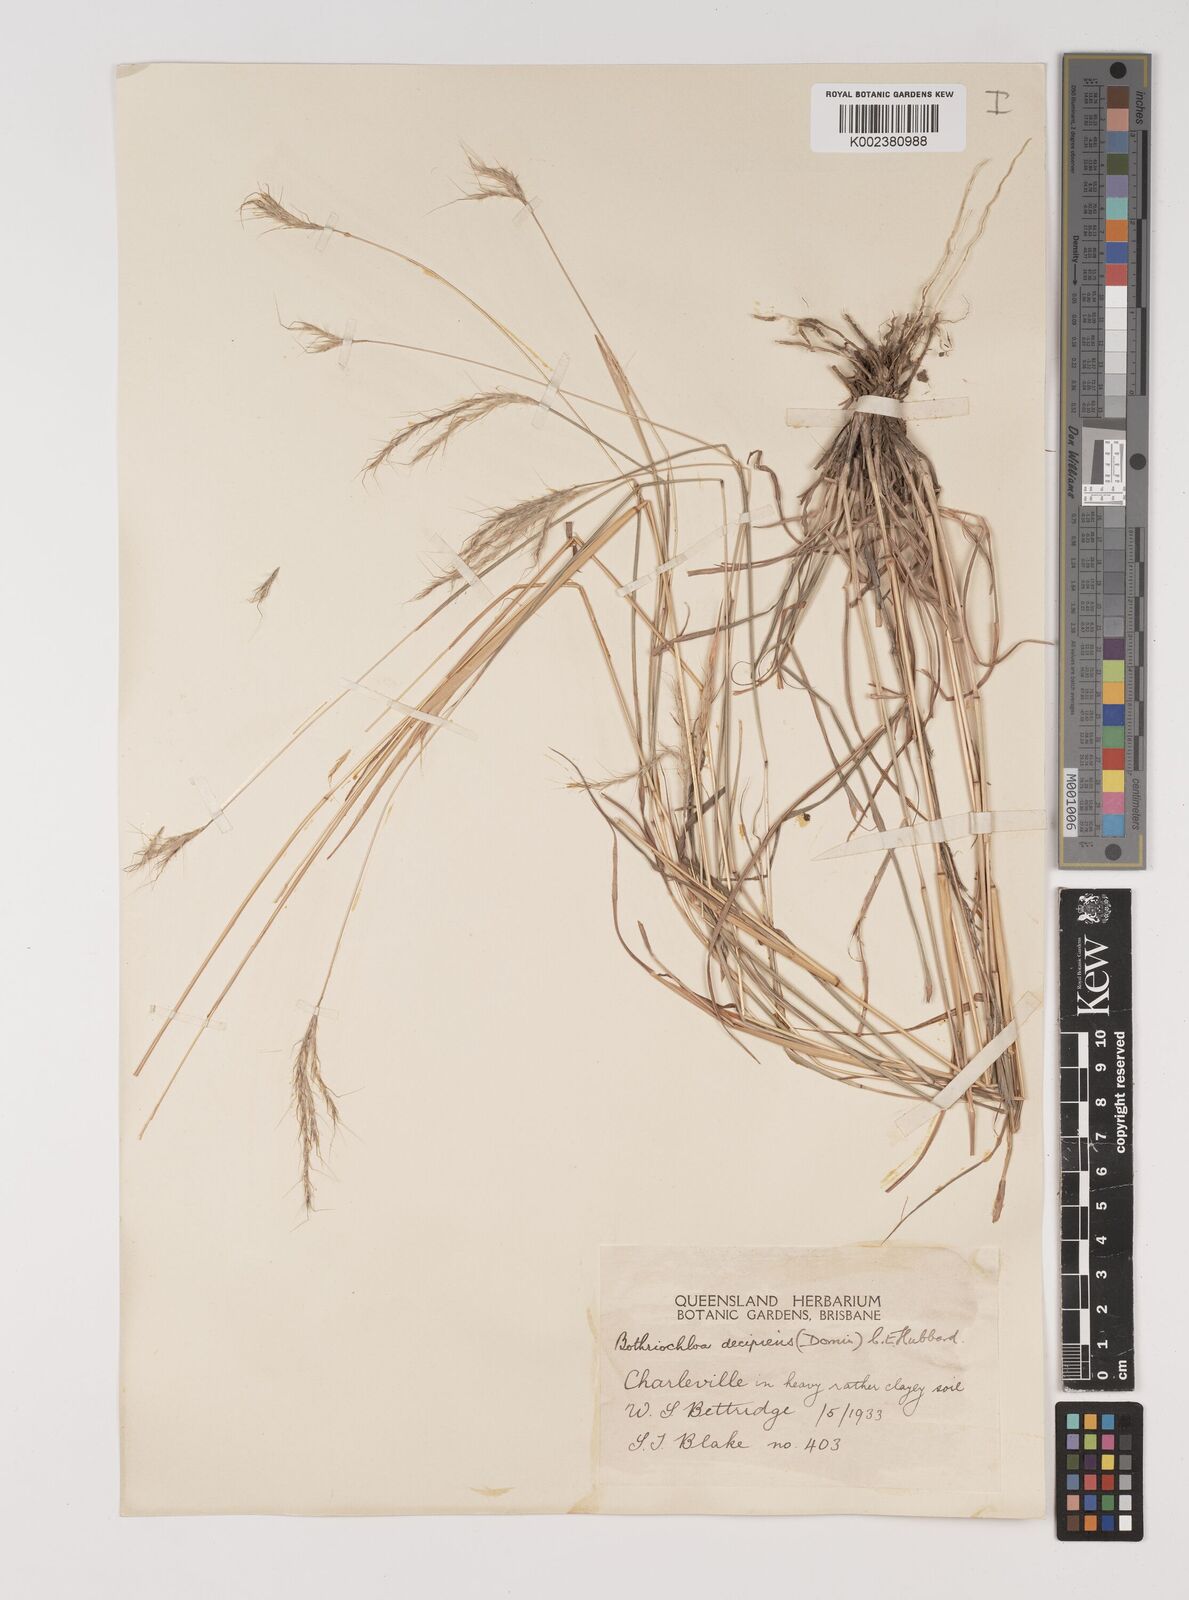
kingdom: Plantae
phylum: Tracheophyta
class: Liliopsida
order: Poales
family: Poaceae
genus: Bothriochloa
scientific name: Bothriochloa decipiens
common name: Pitted-bluegrass
